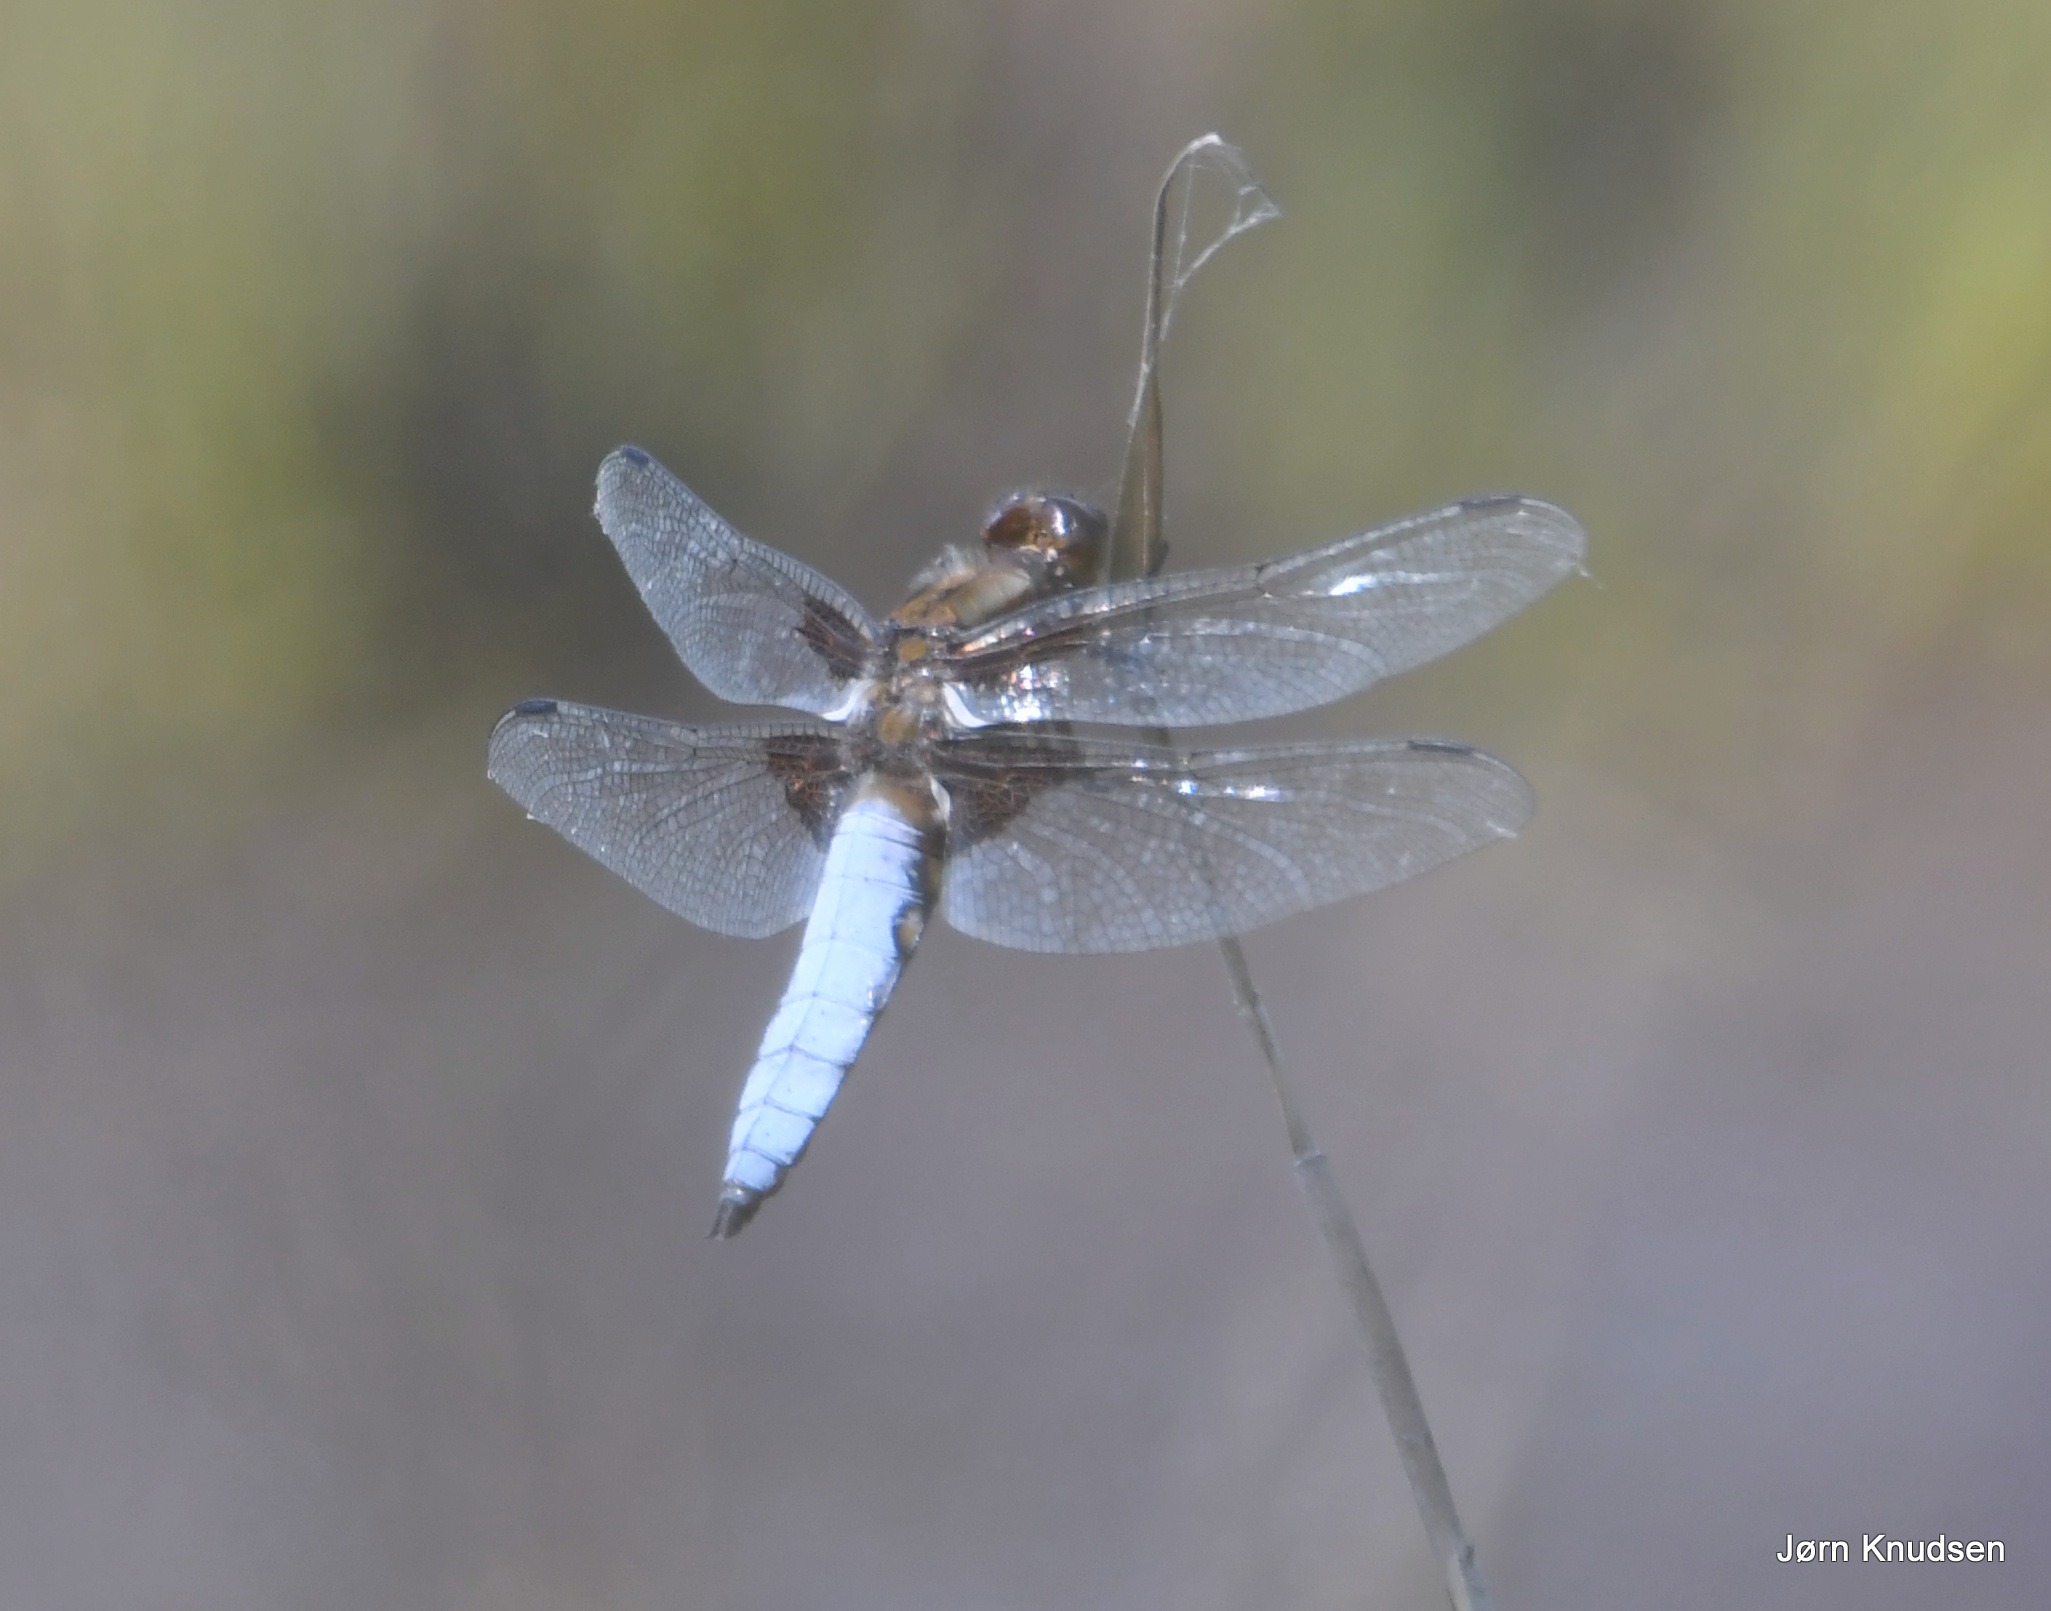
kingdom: Animalia
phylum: Arthropoda
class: Insecta
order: Odonata
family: Libellulidae
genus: Libellula
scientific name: Libellula depressa
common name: Blå libel
